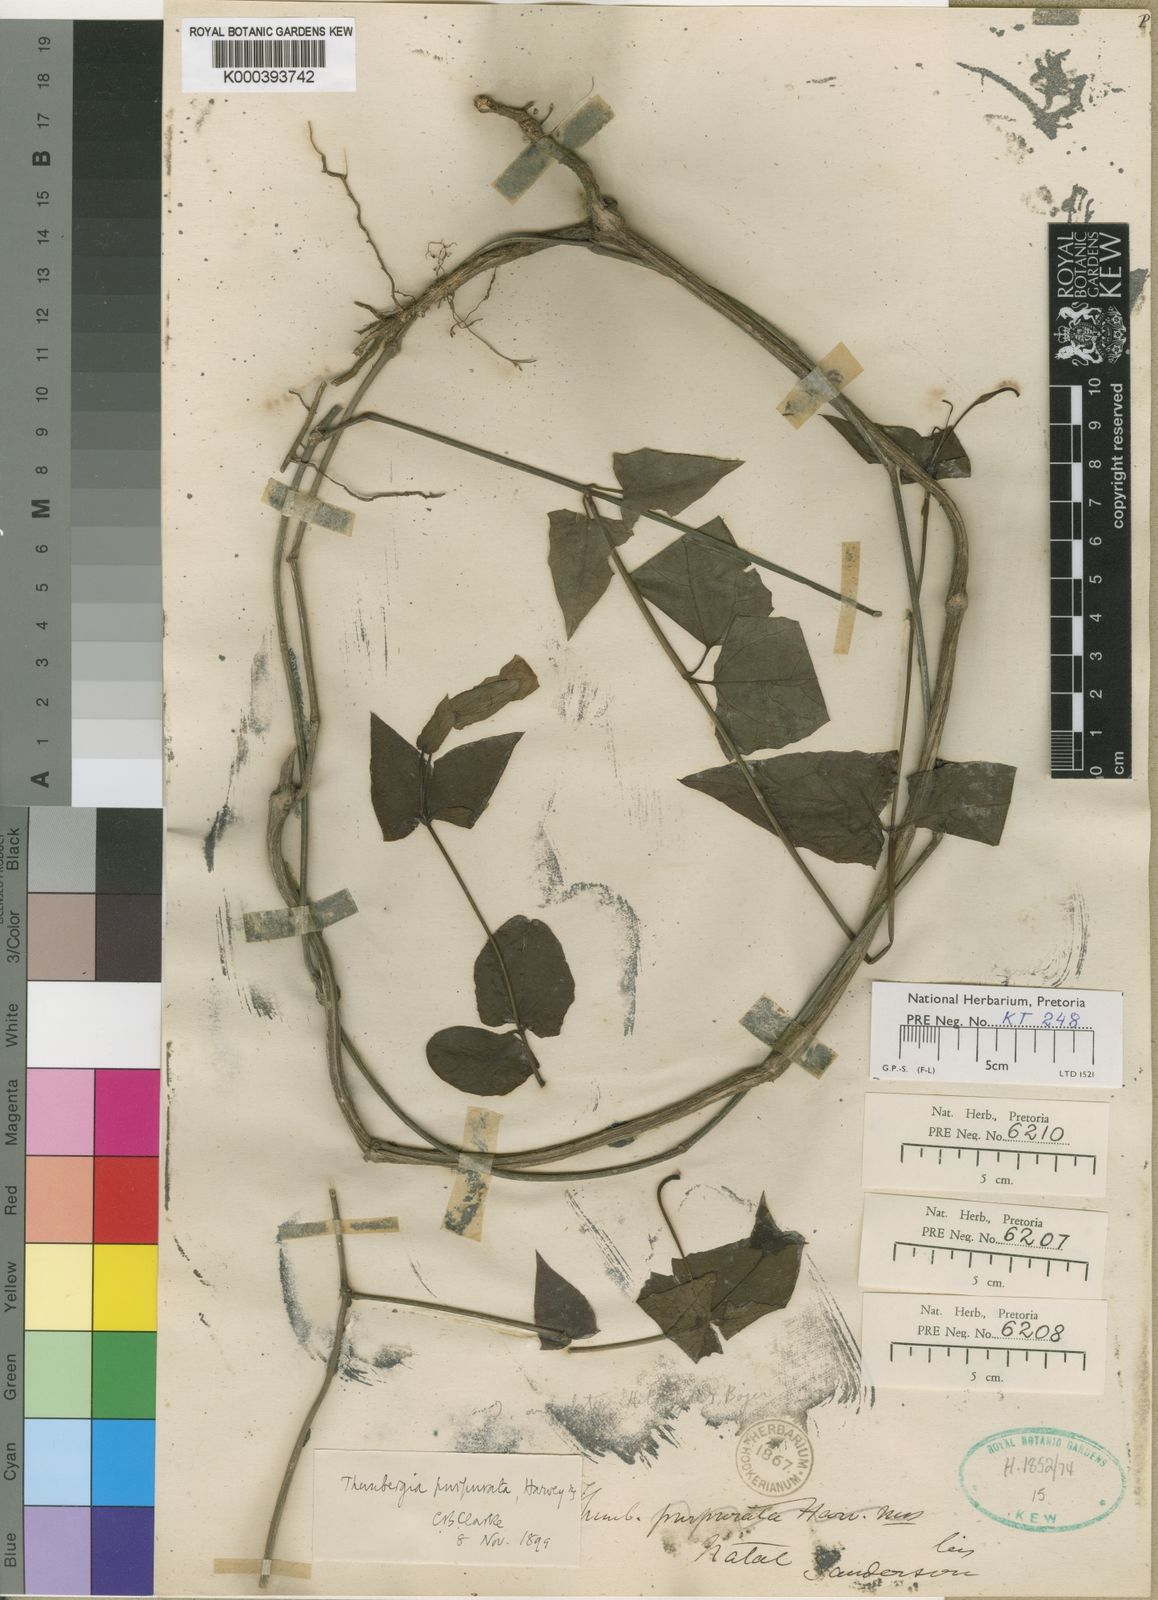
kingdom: Plantae
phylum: Tracheophyta
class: Magnoliopsida
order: Lamiales
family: Acanthaceae
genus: Thunbergia
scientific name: Thunbergia purpurata
